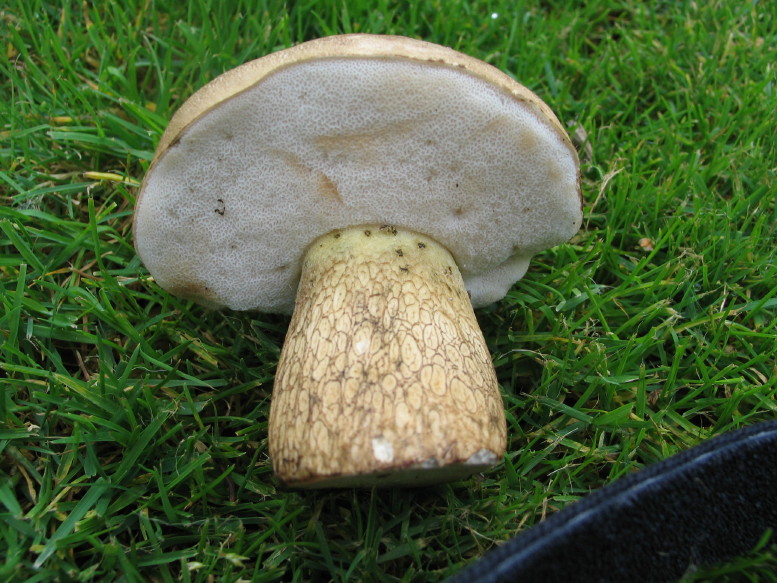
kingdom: Fungi
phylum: Basidiomycota
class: Agaricomycetes
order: Boletales
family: Boletaceae
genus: Tylopilus
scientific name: Tylopilus felleus
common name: galderørhat
